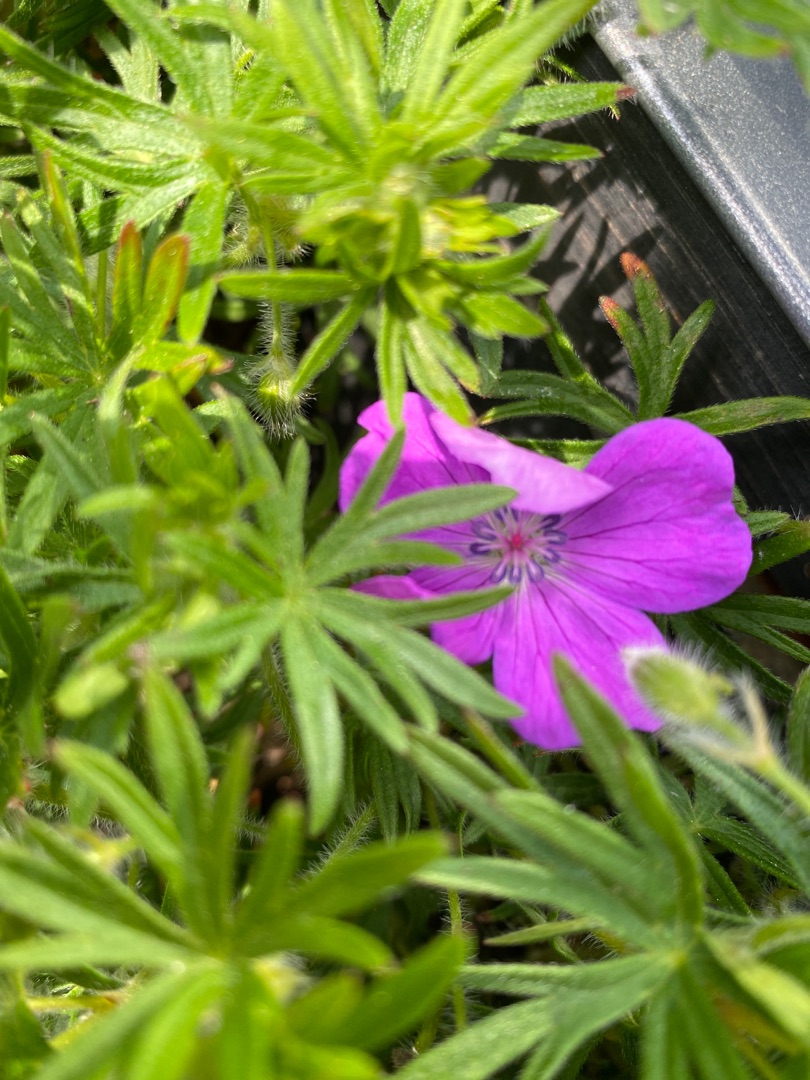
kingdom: Plantae
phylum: Tracheophyta
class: Magnoliopsida
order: Geraniales
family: Geraniaceae
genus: Geranium
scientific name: Geranium sanguineum
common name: Blodrød storkenæb
